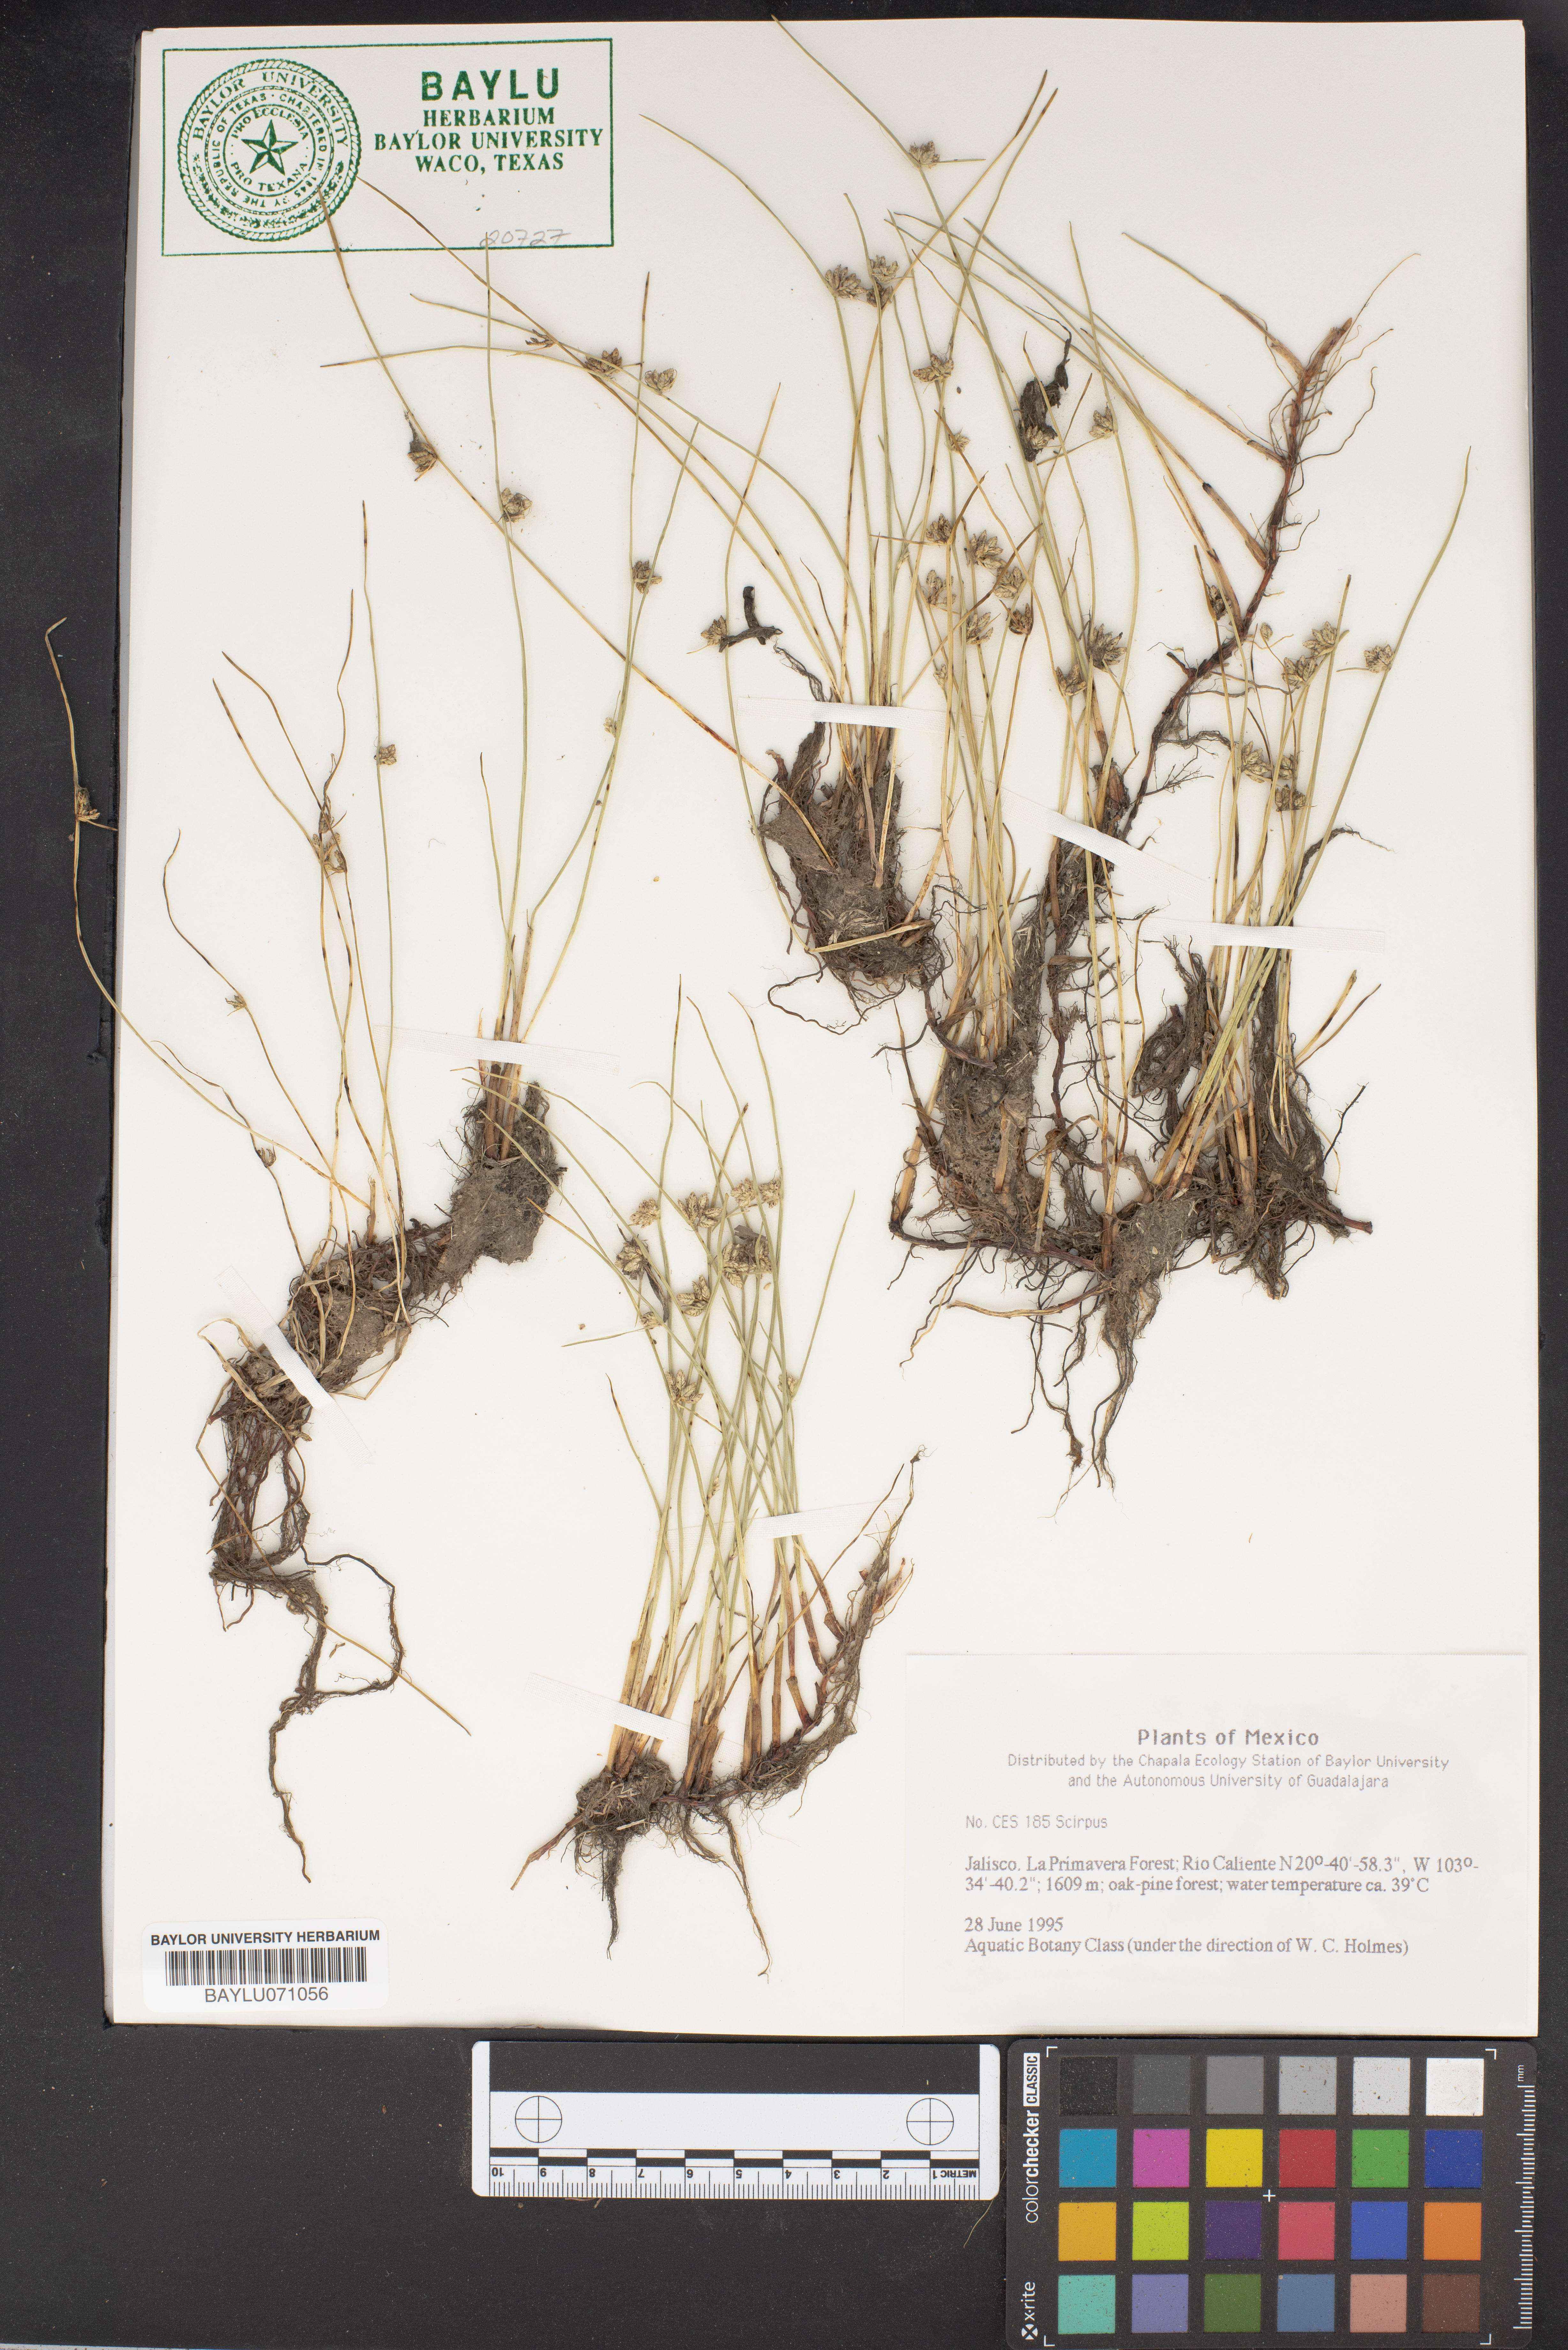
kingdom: Plantae
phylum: Tracheophyta
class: Liliopsida
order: Poales
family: Cyperaceae
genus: Scirpus
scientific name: Scirpus
